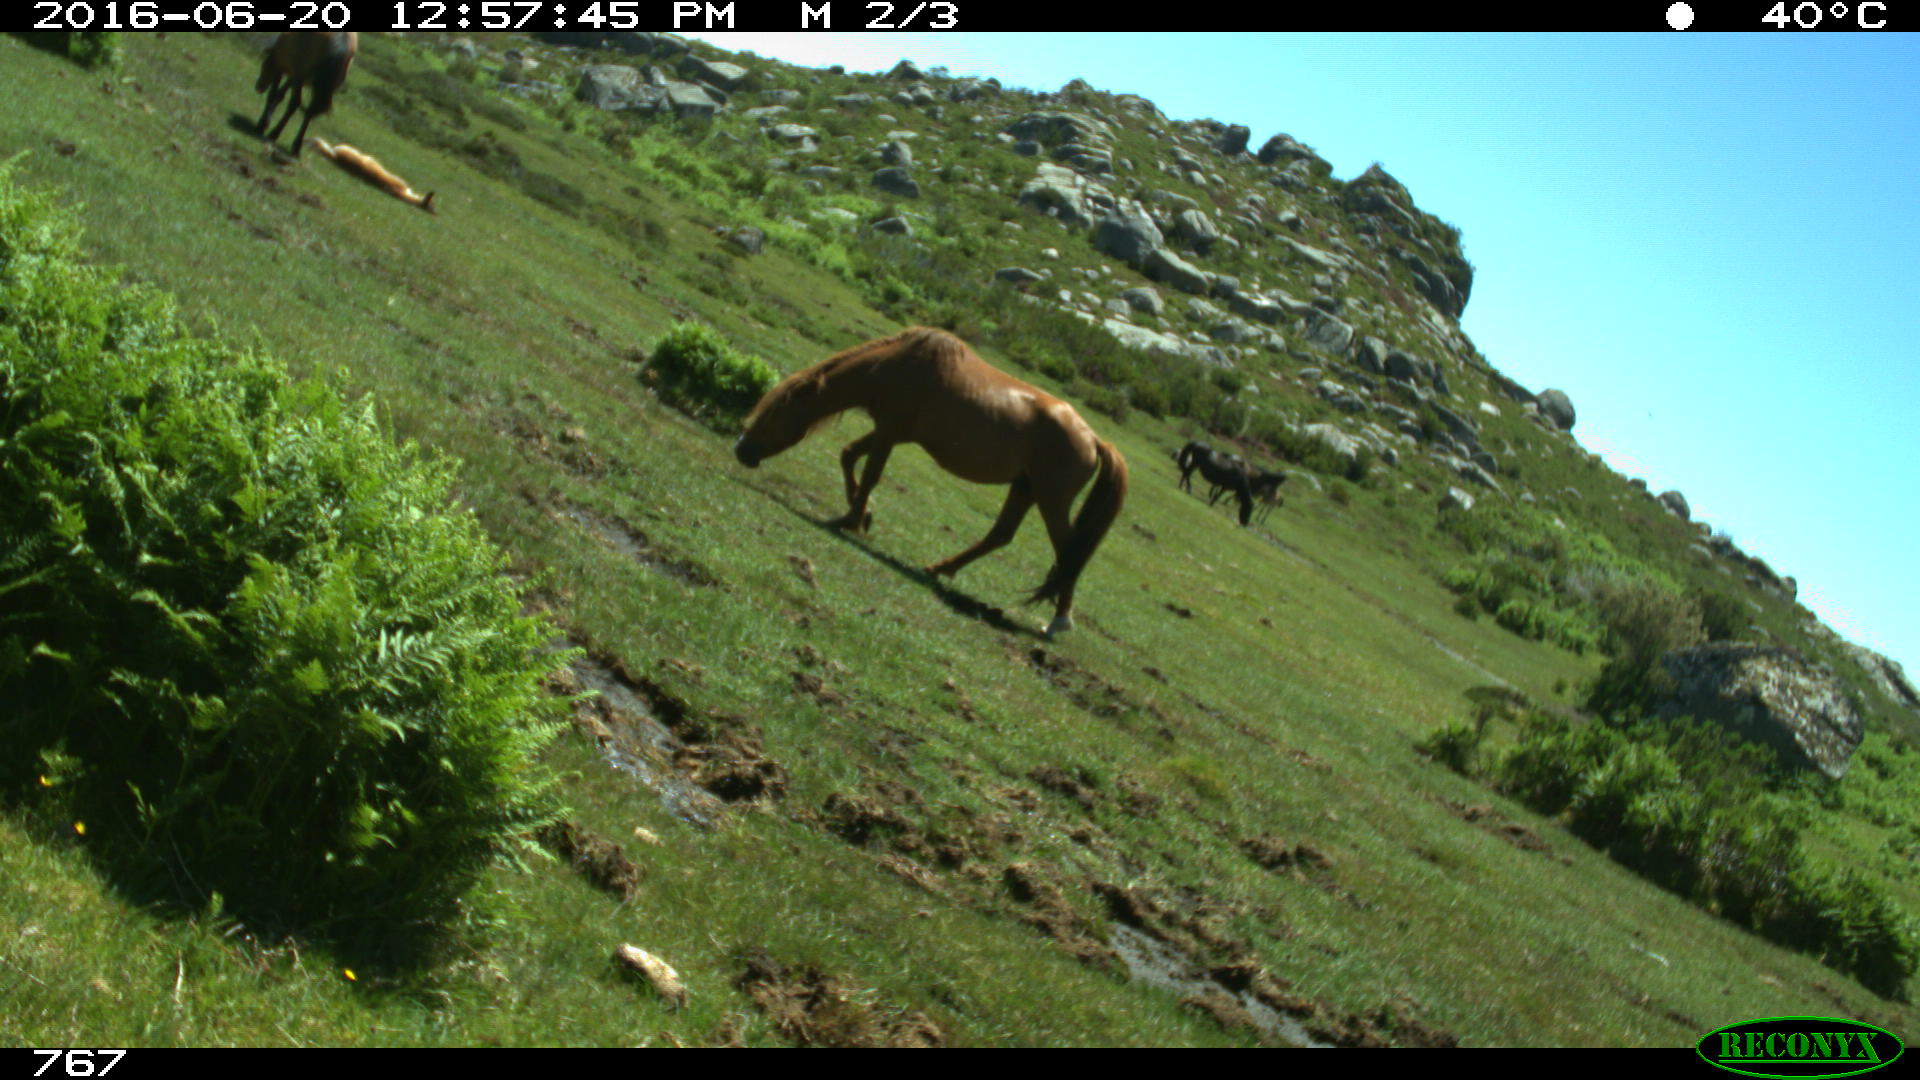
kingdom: Animalia
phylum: Chordata
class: Mammalia
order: Perissodactyla
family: Equidae
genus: Equus
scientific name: Equus caballus
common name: Horse
